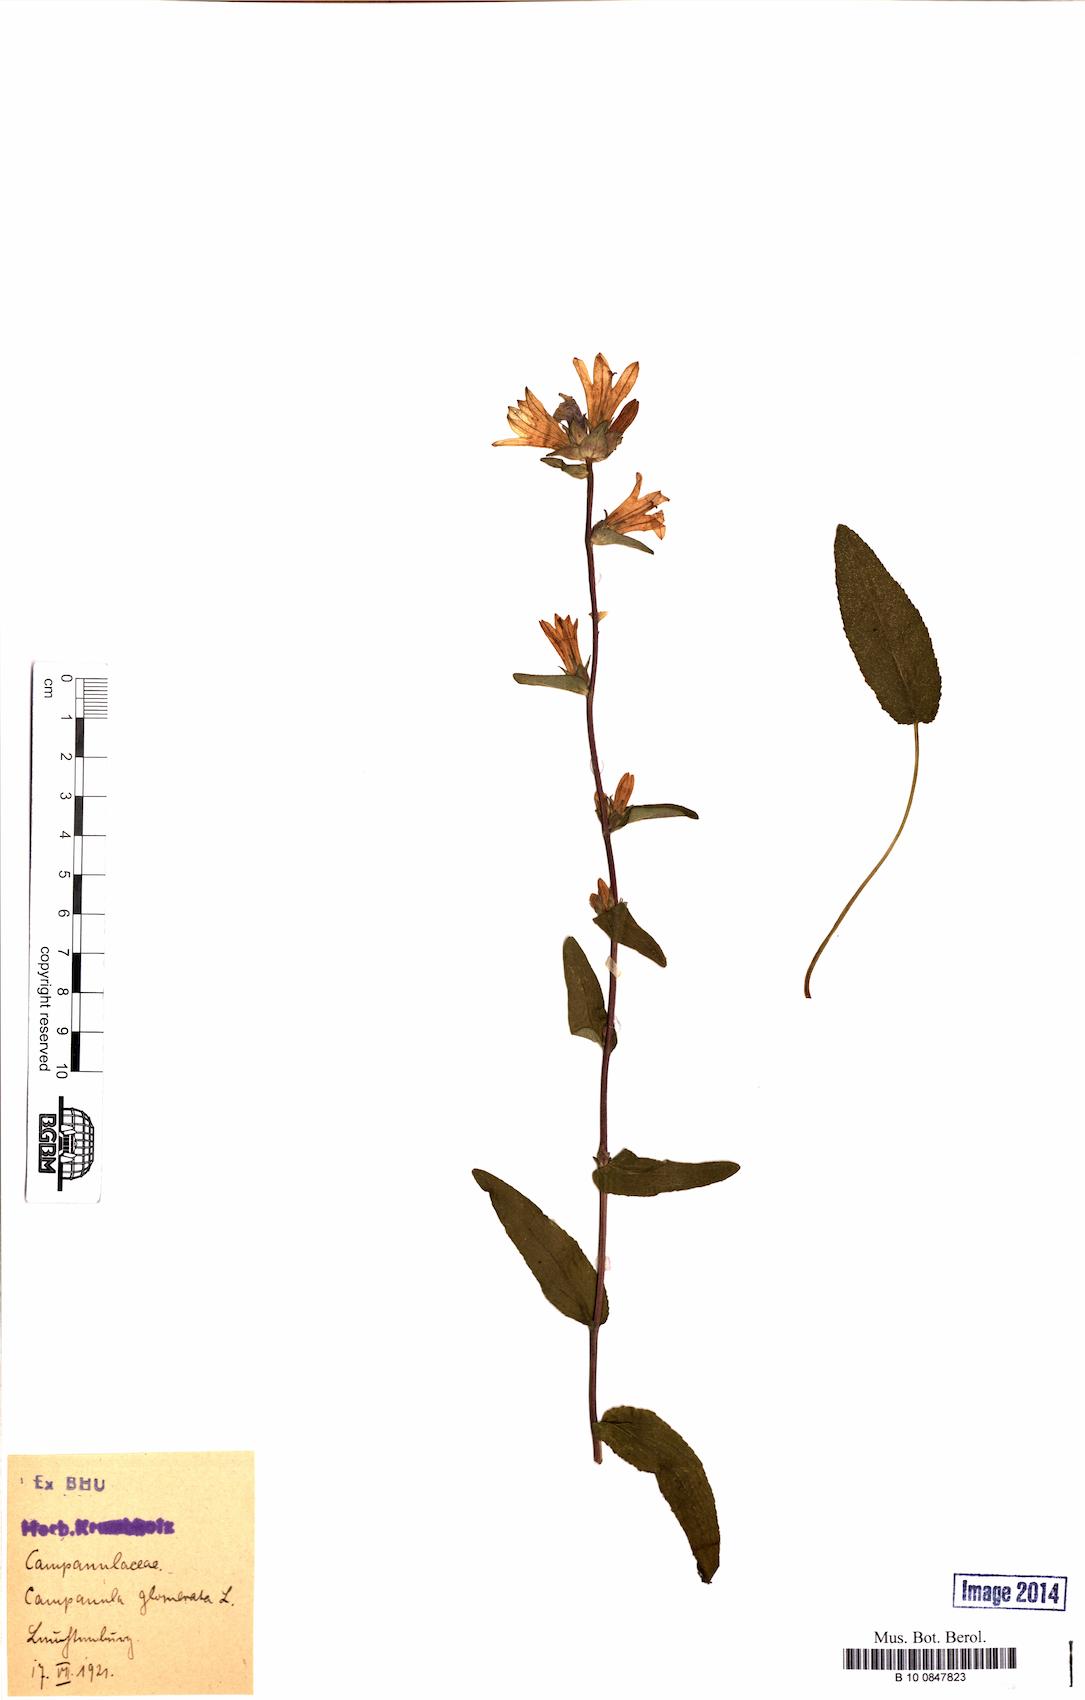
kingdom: Plantae
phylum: Tracheophyta
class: Magnoliopsida
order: Asterales
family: Campanulaceae
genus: Campanula
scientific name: Campanula glomerata
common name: Clustered bellflower
